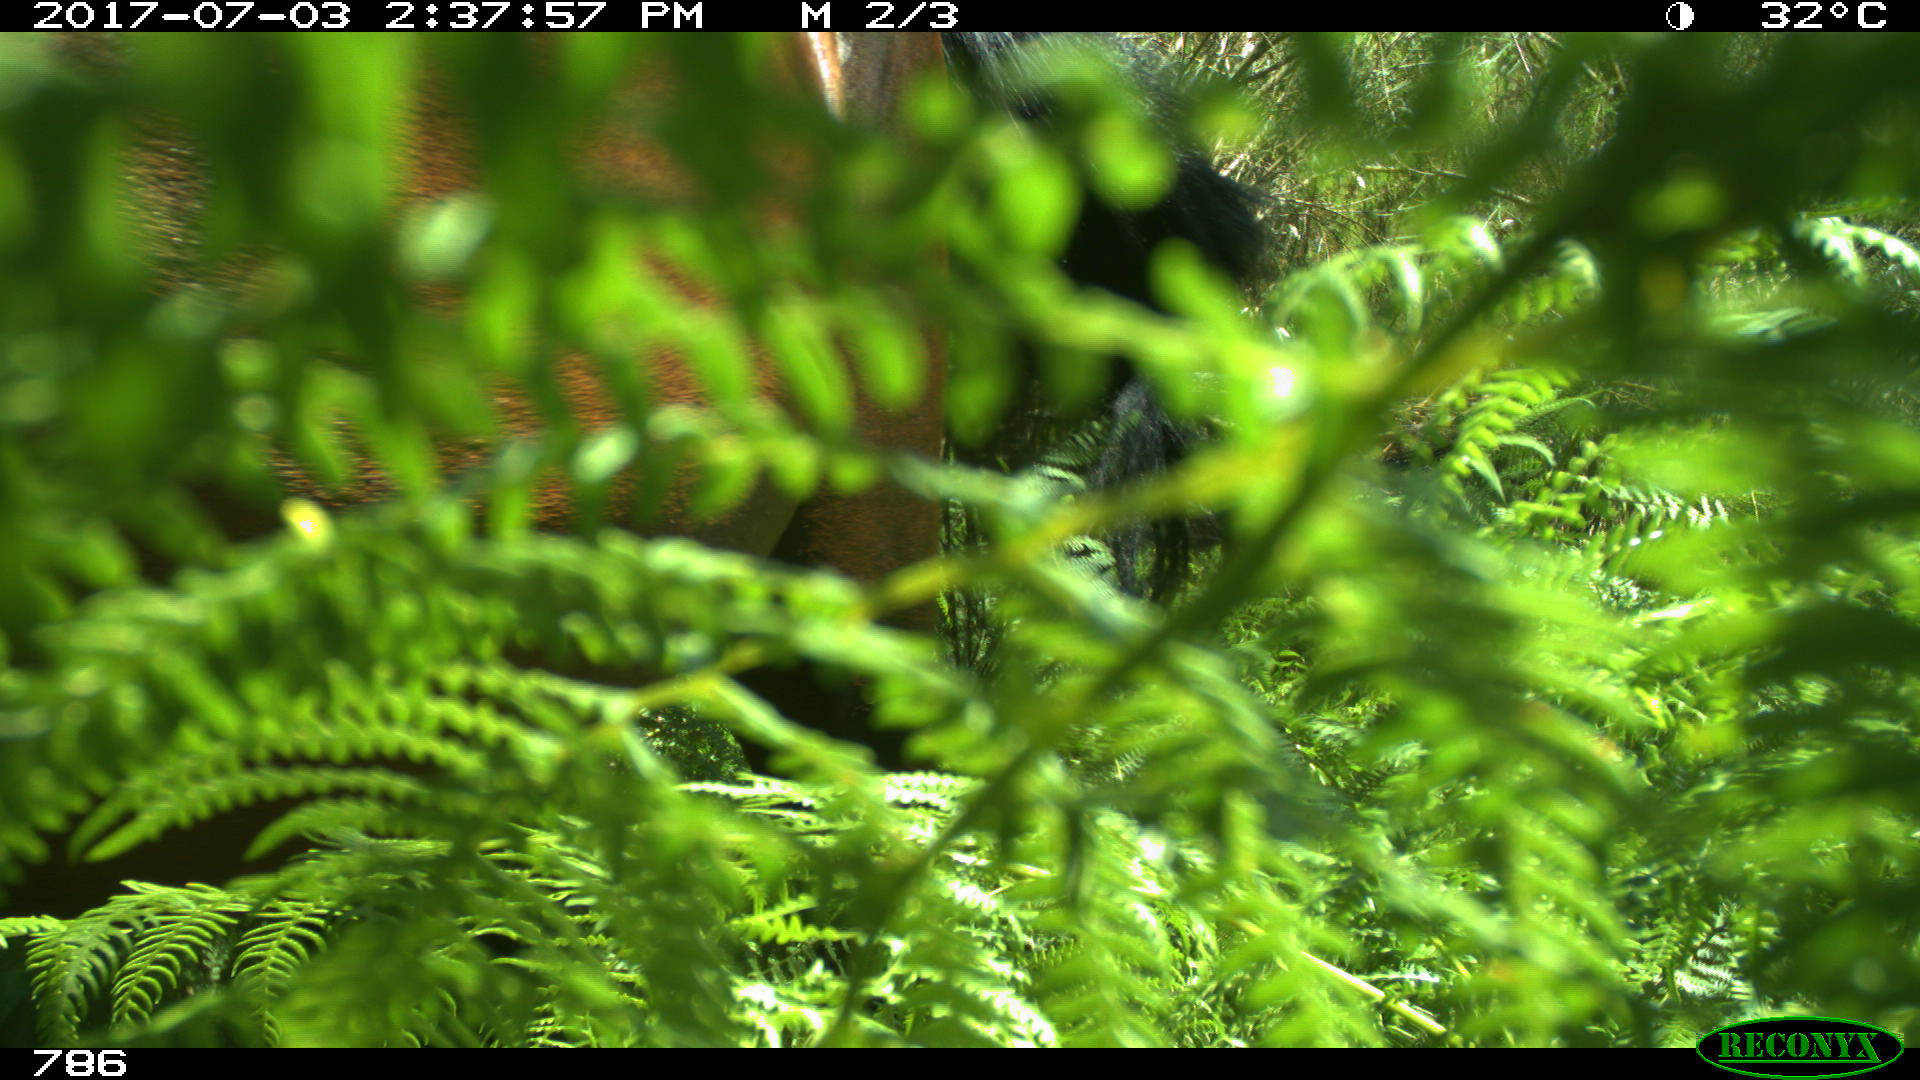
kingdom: Animalia
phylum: Chordata
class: Mammalia
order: Perissodactyla
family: Equidae
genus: Equus
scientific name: Equus caballus
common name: Horse
